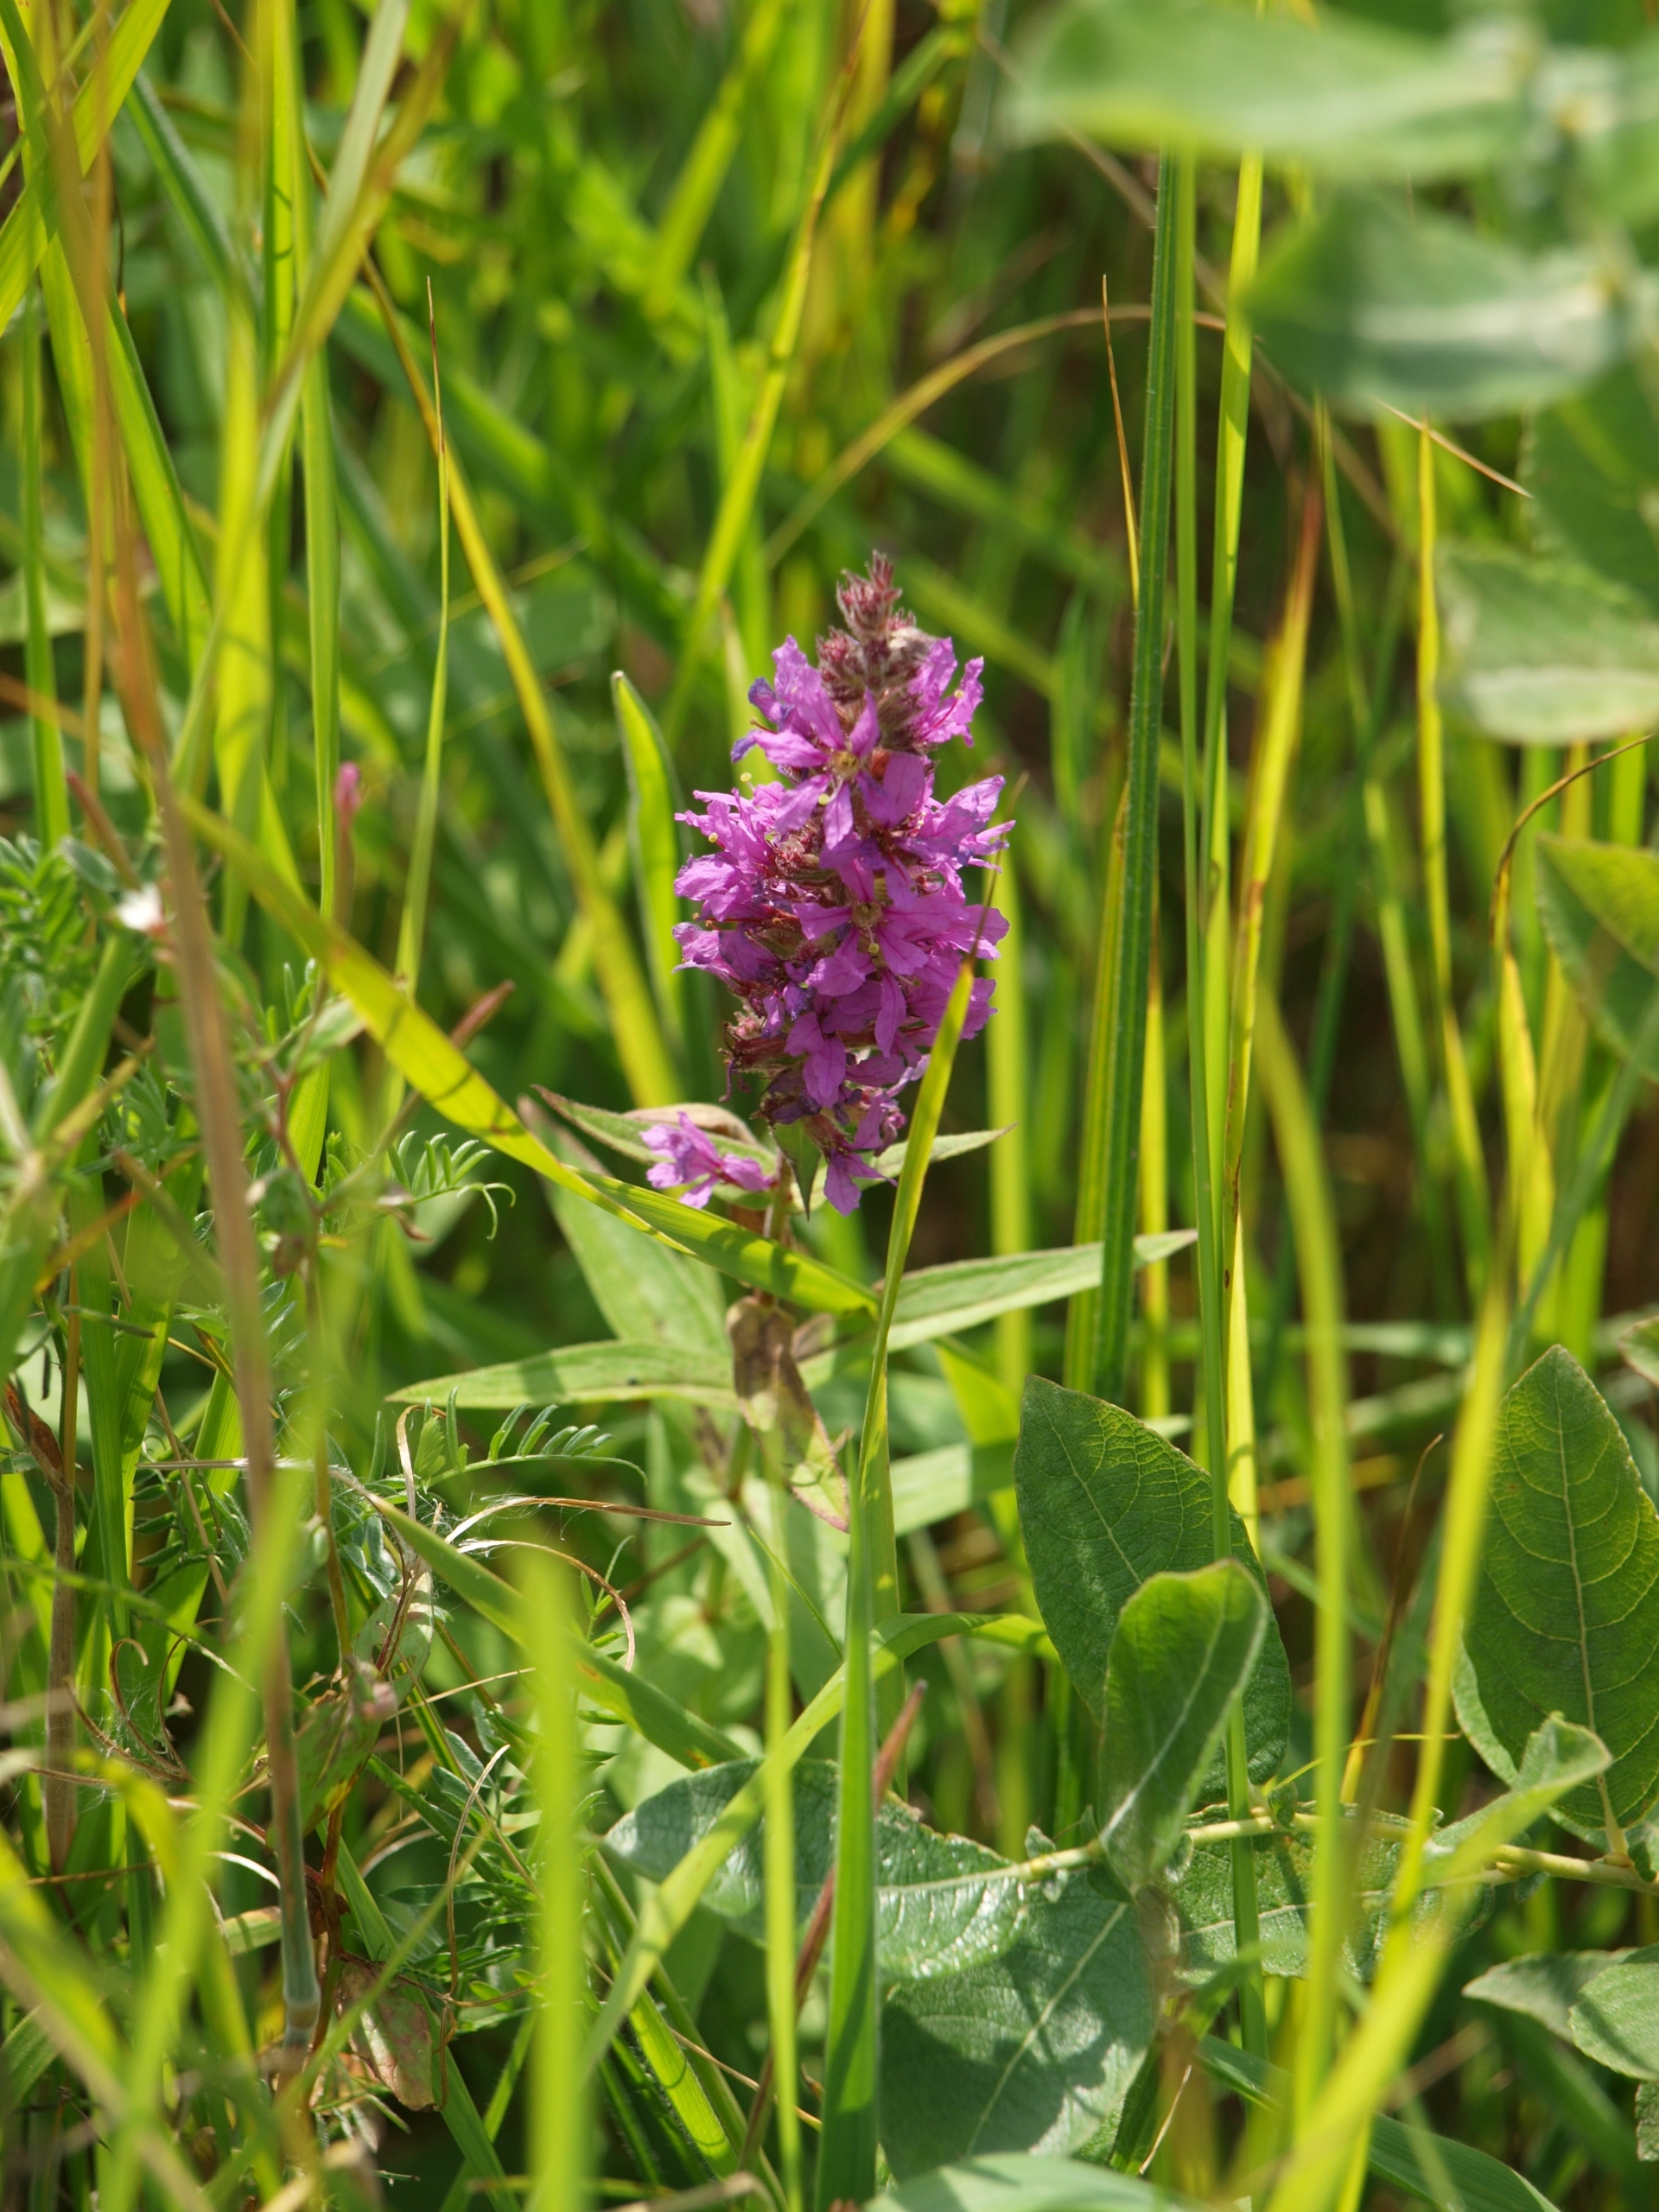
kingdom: Plantae
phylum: Tracheophyta
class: Magnoliopsida
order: Myrtales
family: Lythraceae
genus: Lythrum
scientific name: Lythrum salicaria
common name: Kattehale
